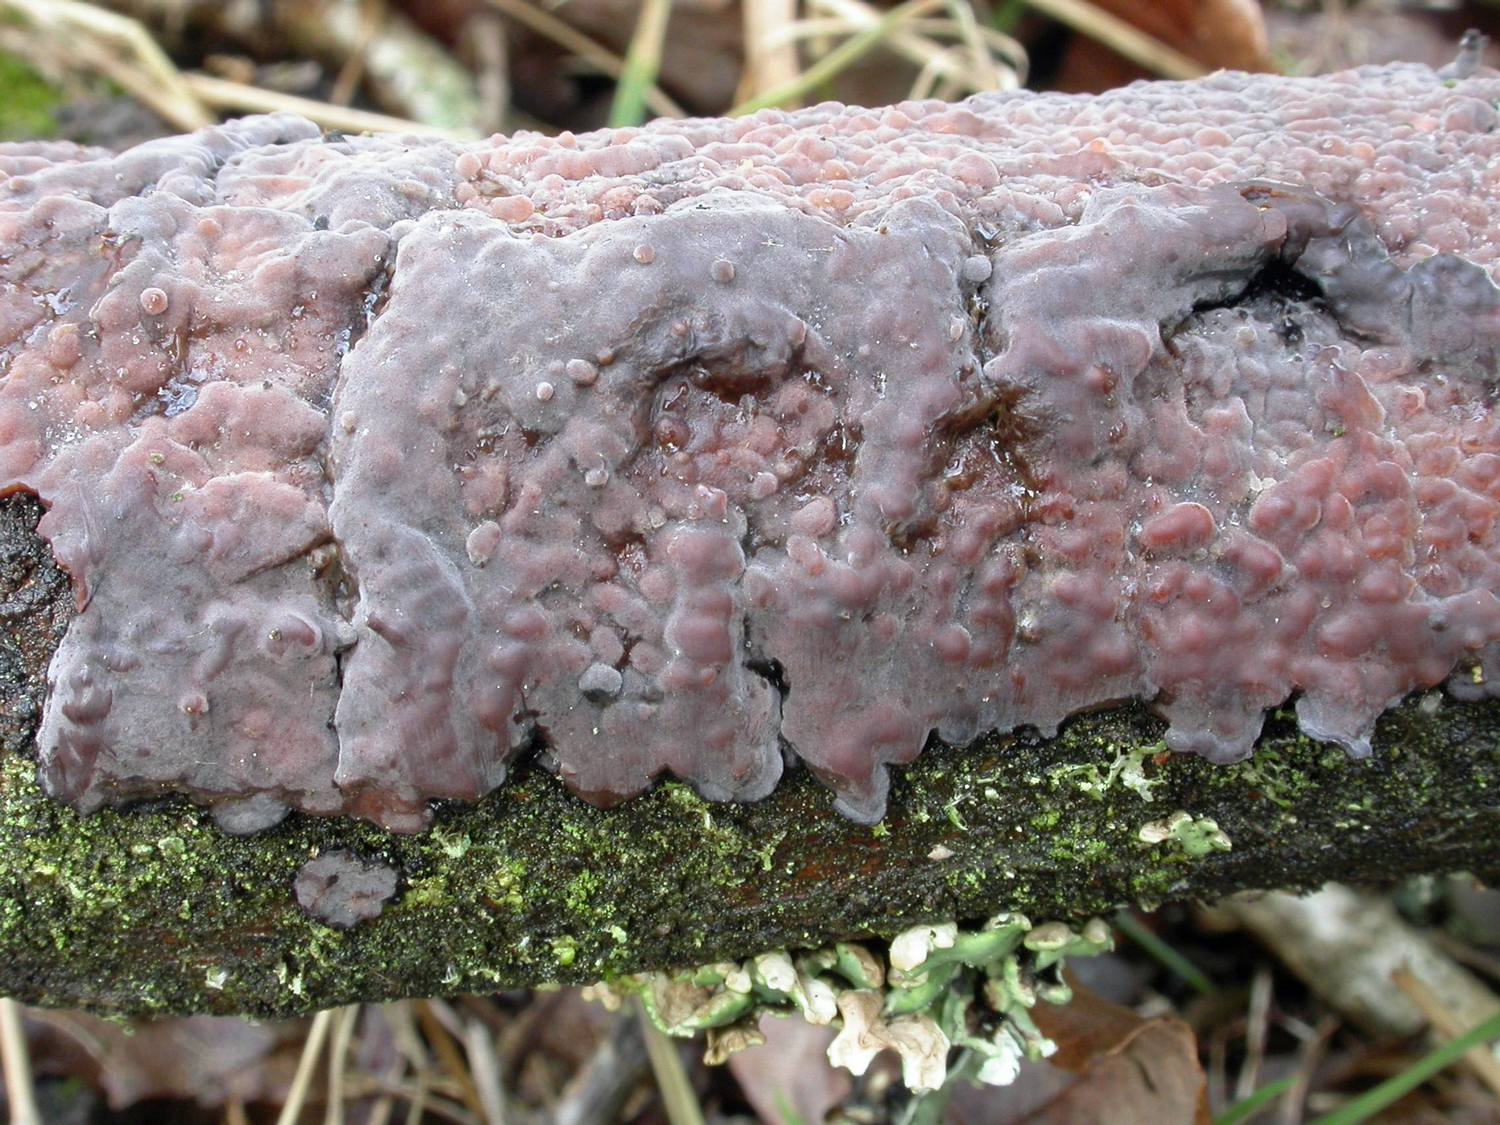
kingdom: Fungi
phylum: Basidiomycota
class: Agaricomycetes
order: Russulales
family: Peniophoraceae
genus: Peniophora
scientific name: Peniophora quercina
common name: ege-voksskind
